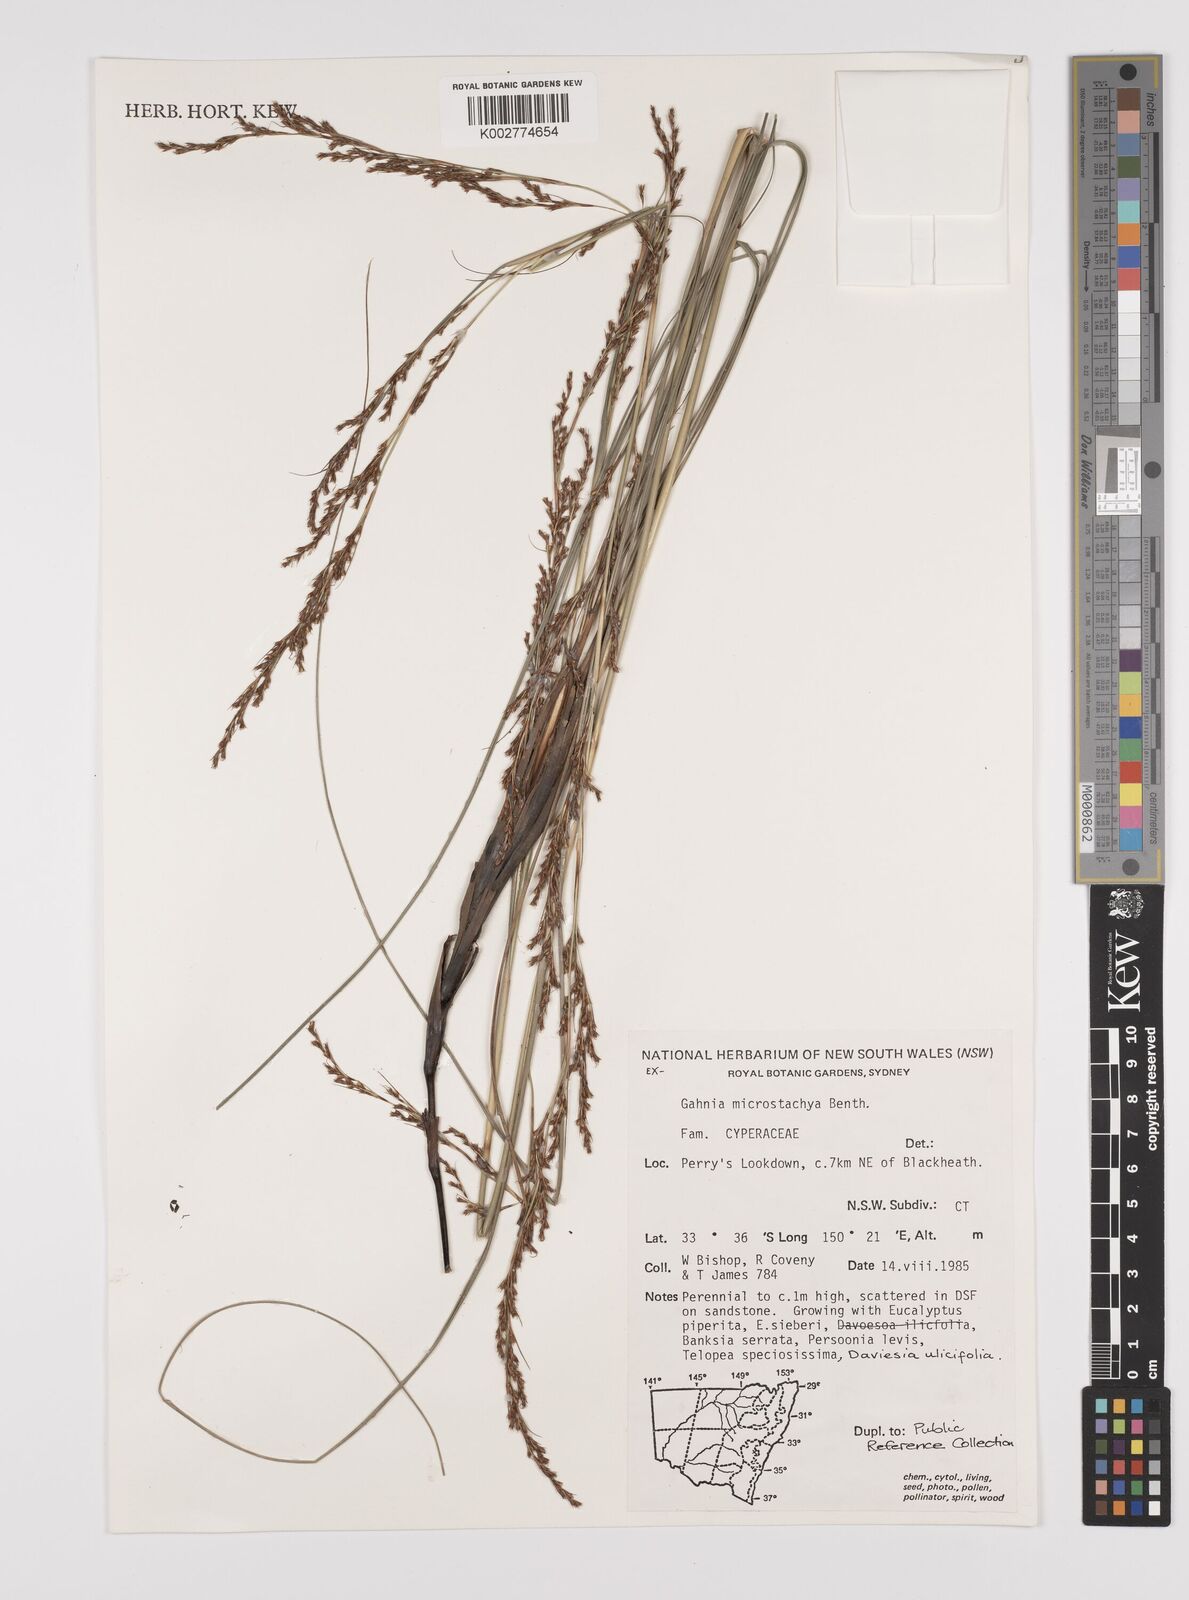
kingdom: Plantae
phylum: Tracheophyta
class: Liliopsida
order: Poales
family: Cyperaceae
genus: Gahnia
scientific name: Gahnia microstachya
